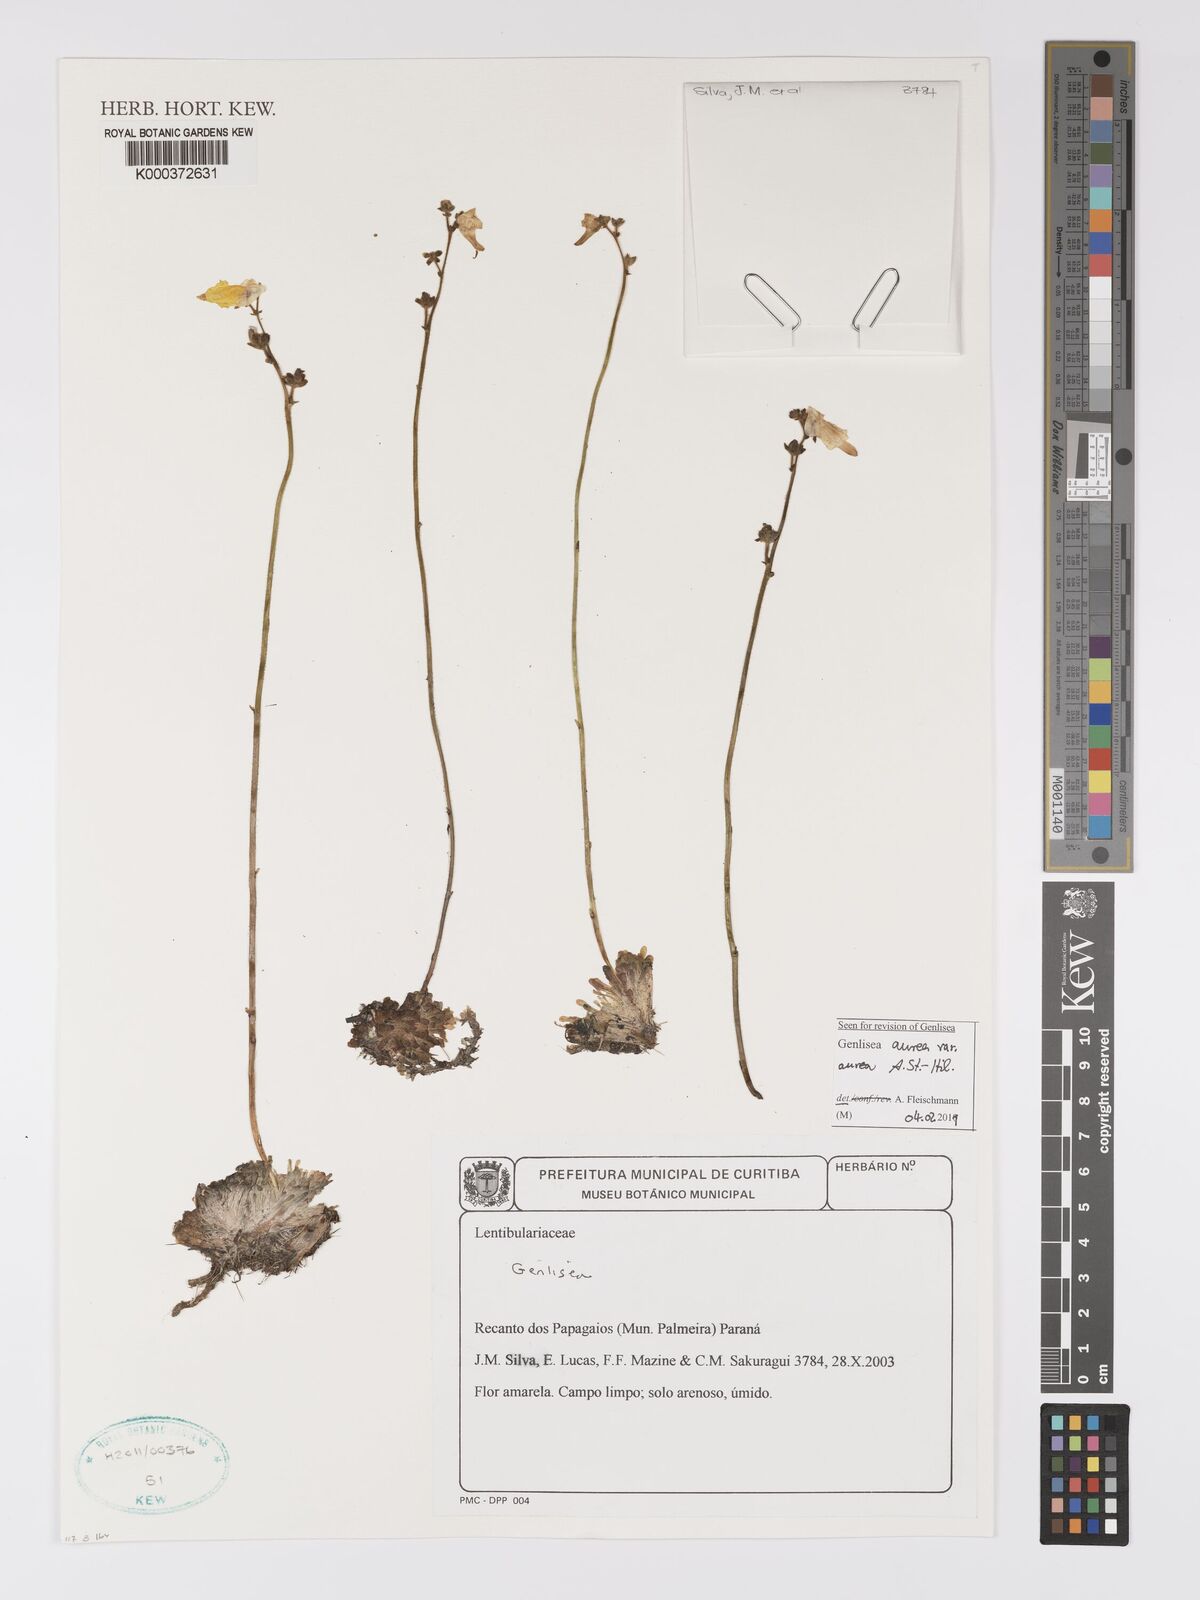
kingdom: Plantae
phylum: Tracheophyta
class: Magnoliopsida
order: Lamiales
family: Lentibulariaceae
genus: Genlisea
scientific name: Genlisea
